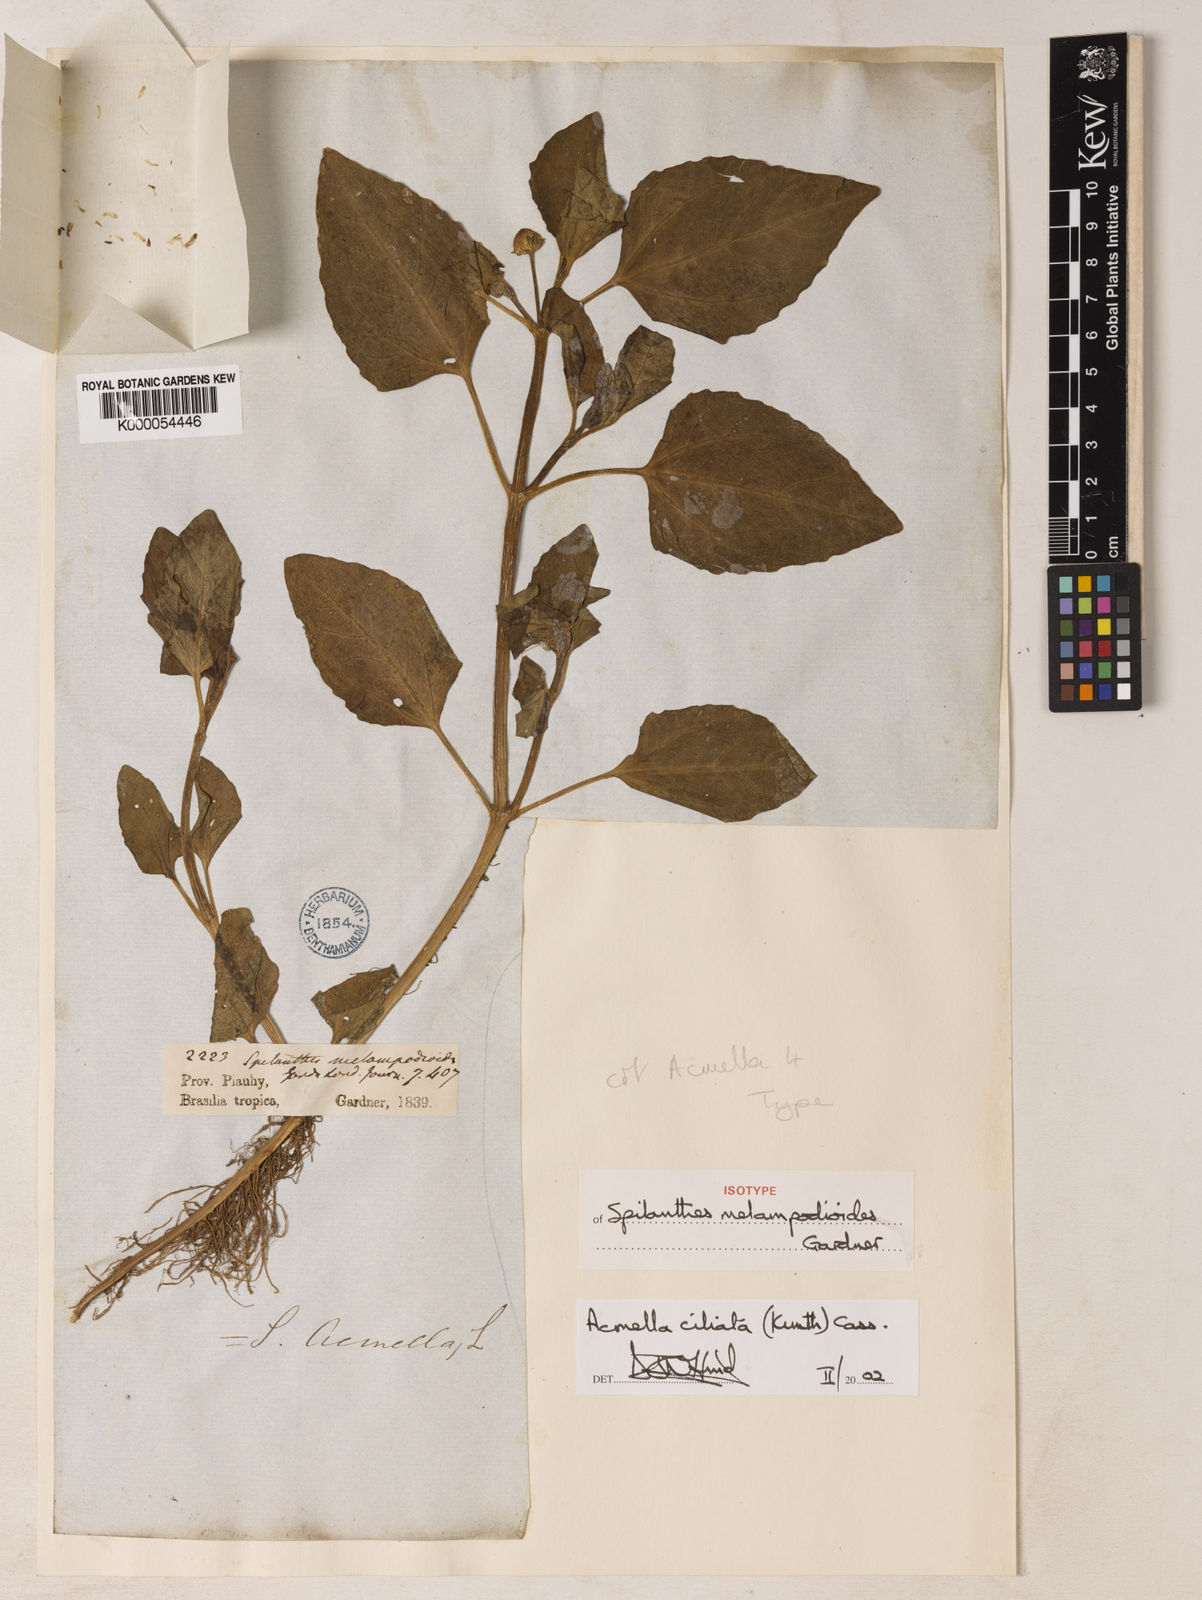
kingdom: Plantae
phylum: Tracheophyta
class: Magnoliopsida
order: Asterales
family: Asteraceae
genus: Acmella
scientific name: Acmella ciliata
